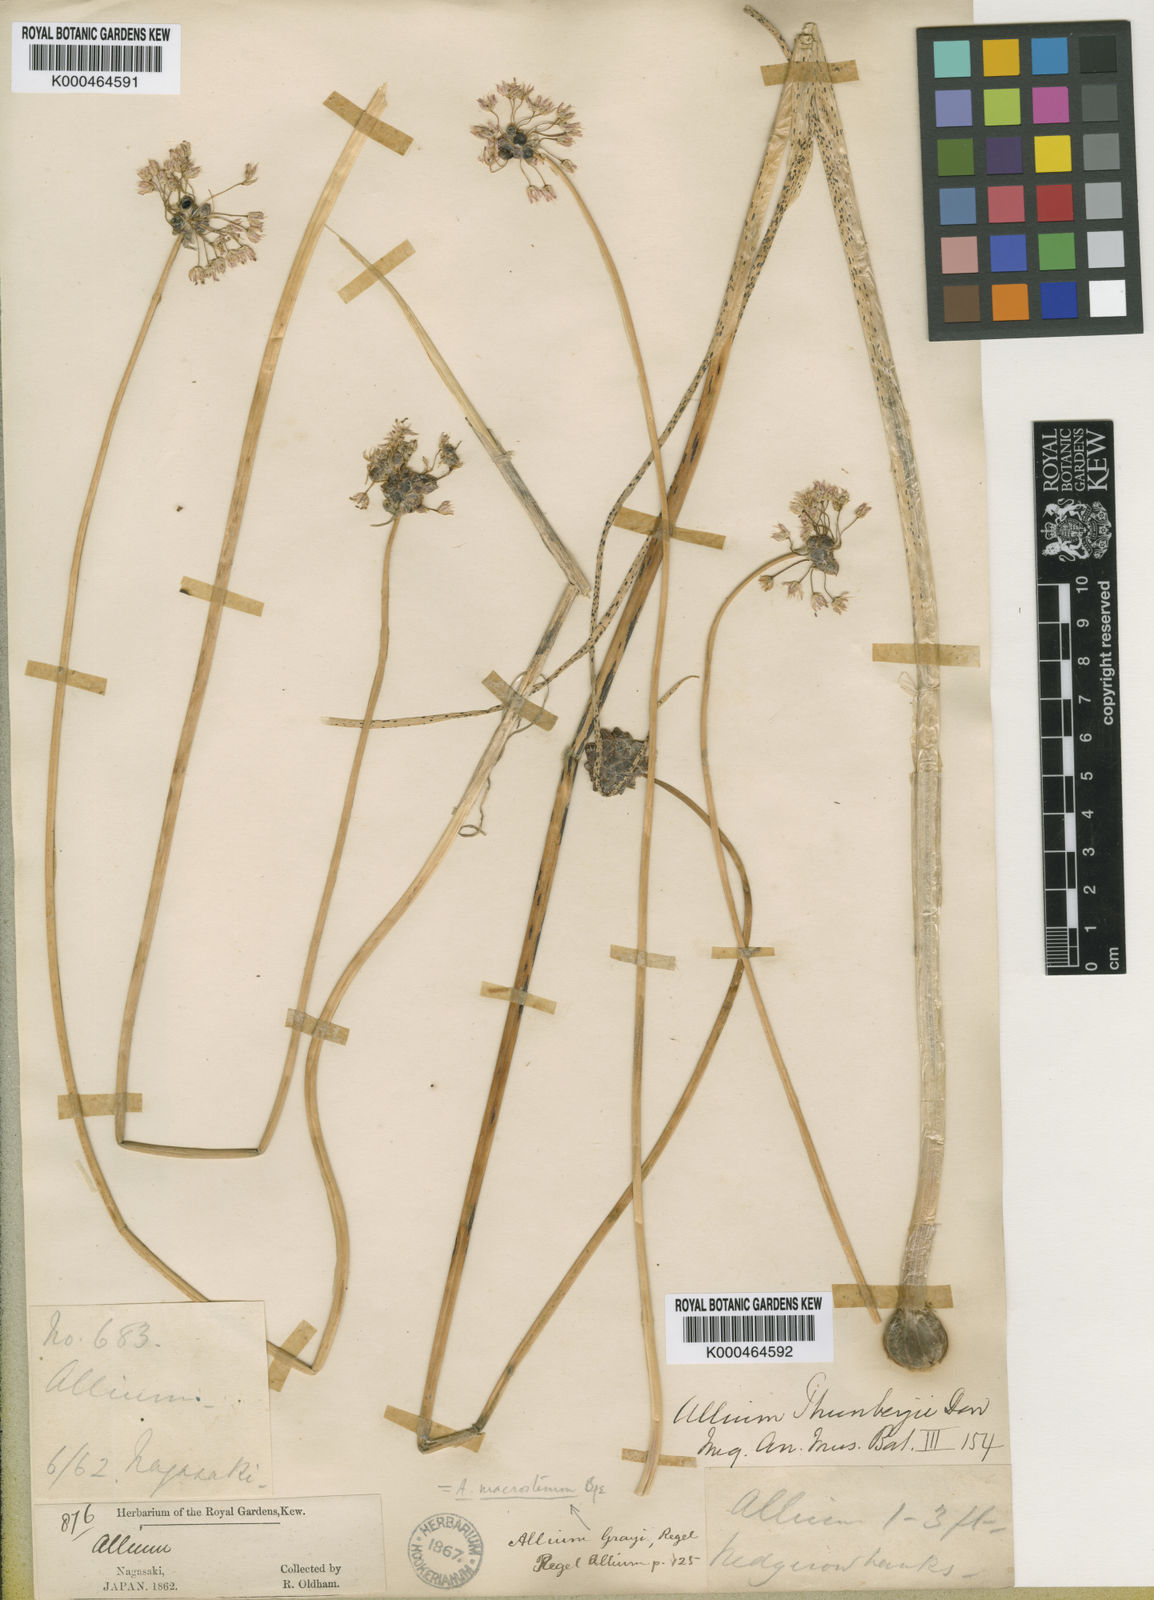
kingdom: Plantae
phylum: Tracheophyta
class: Liliopsida
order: Asparagales
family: Amaryllidaceae
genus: Allium
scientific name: Allium macrostemon
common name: Chinese garlic
